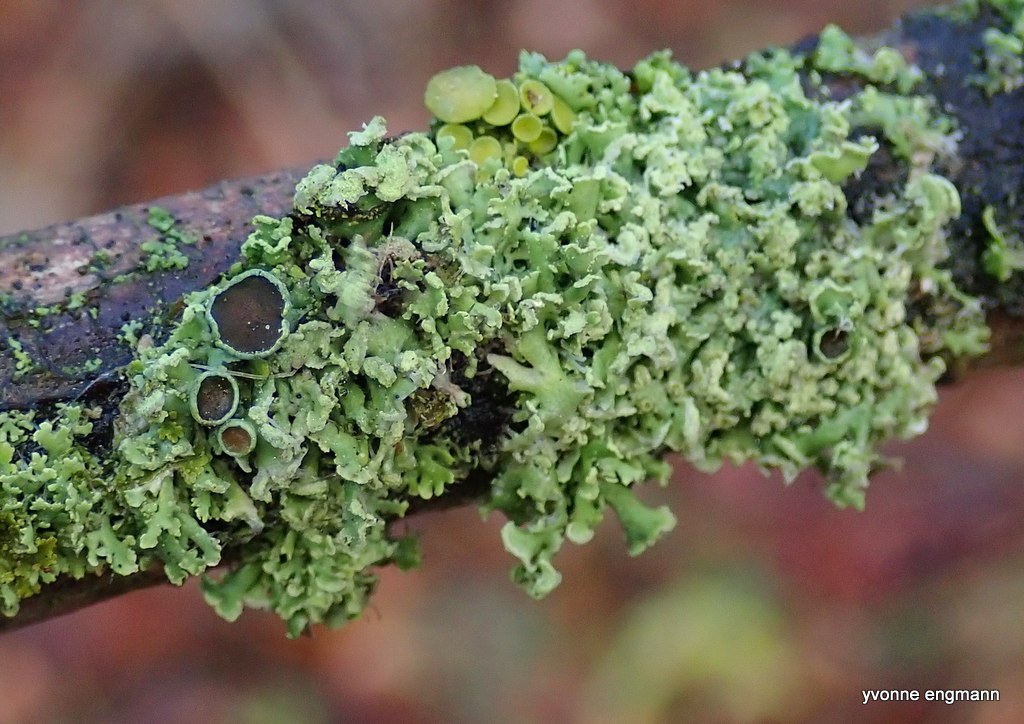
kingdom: Fungi
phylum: Ascomycota
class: Lecanoromycetes
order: Caliciales
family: Physciaceae
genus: Physcia
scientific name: Physcia tenella
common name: spæd rosetlav
